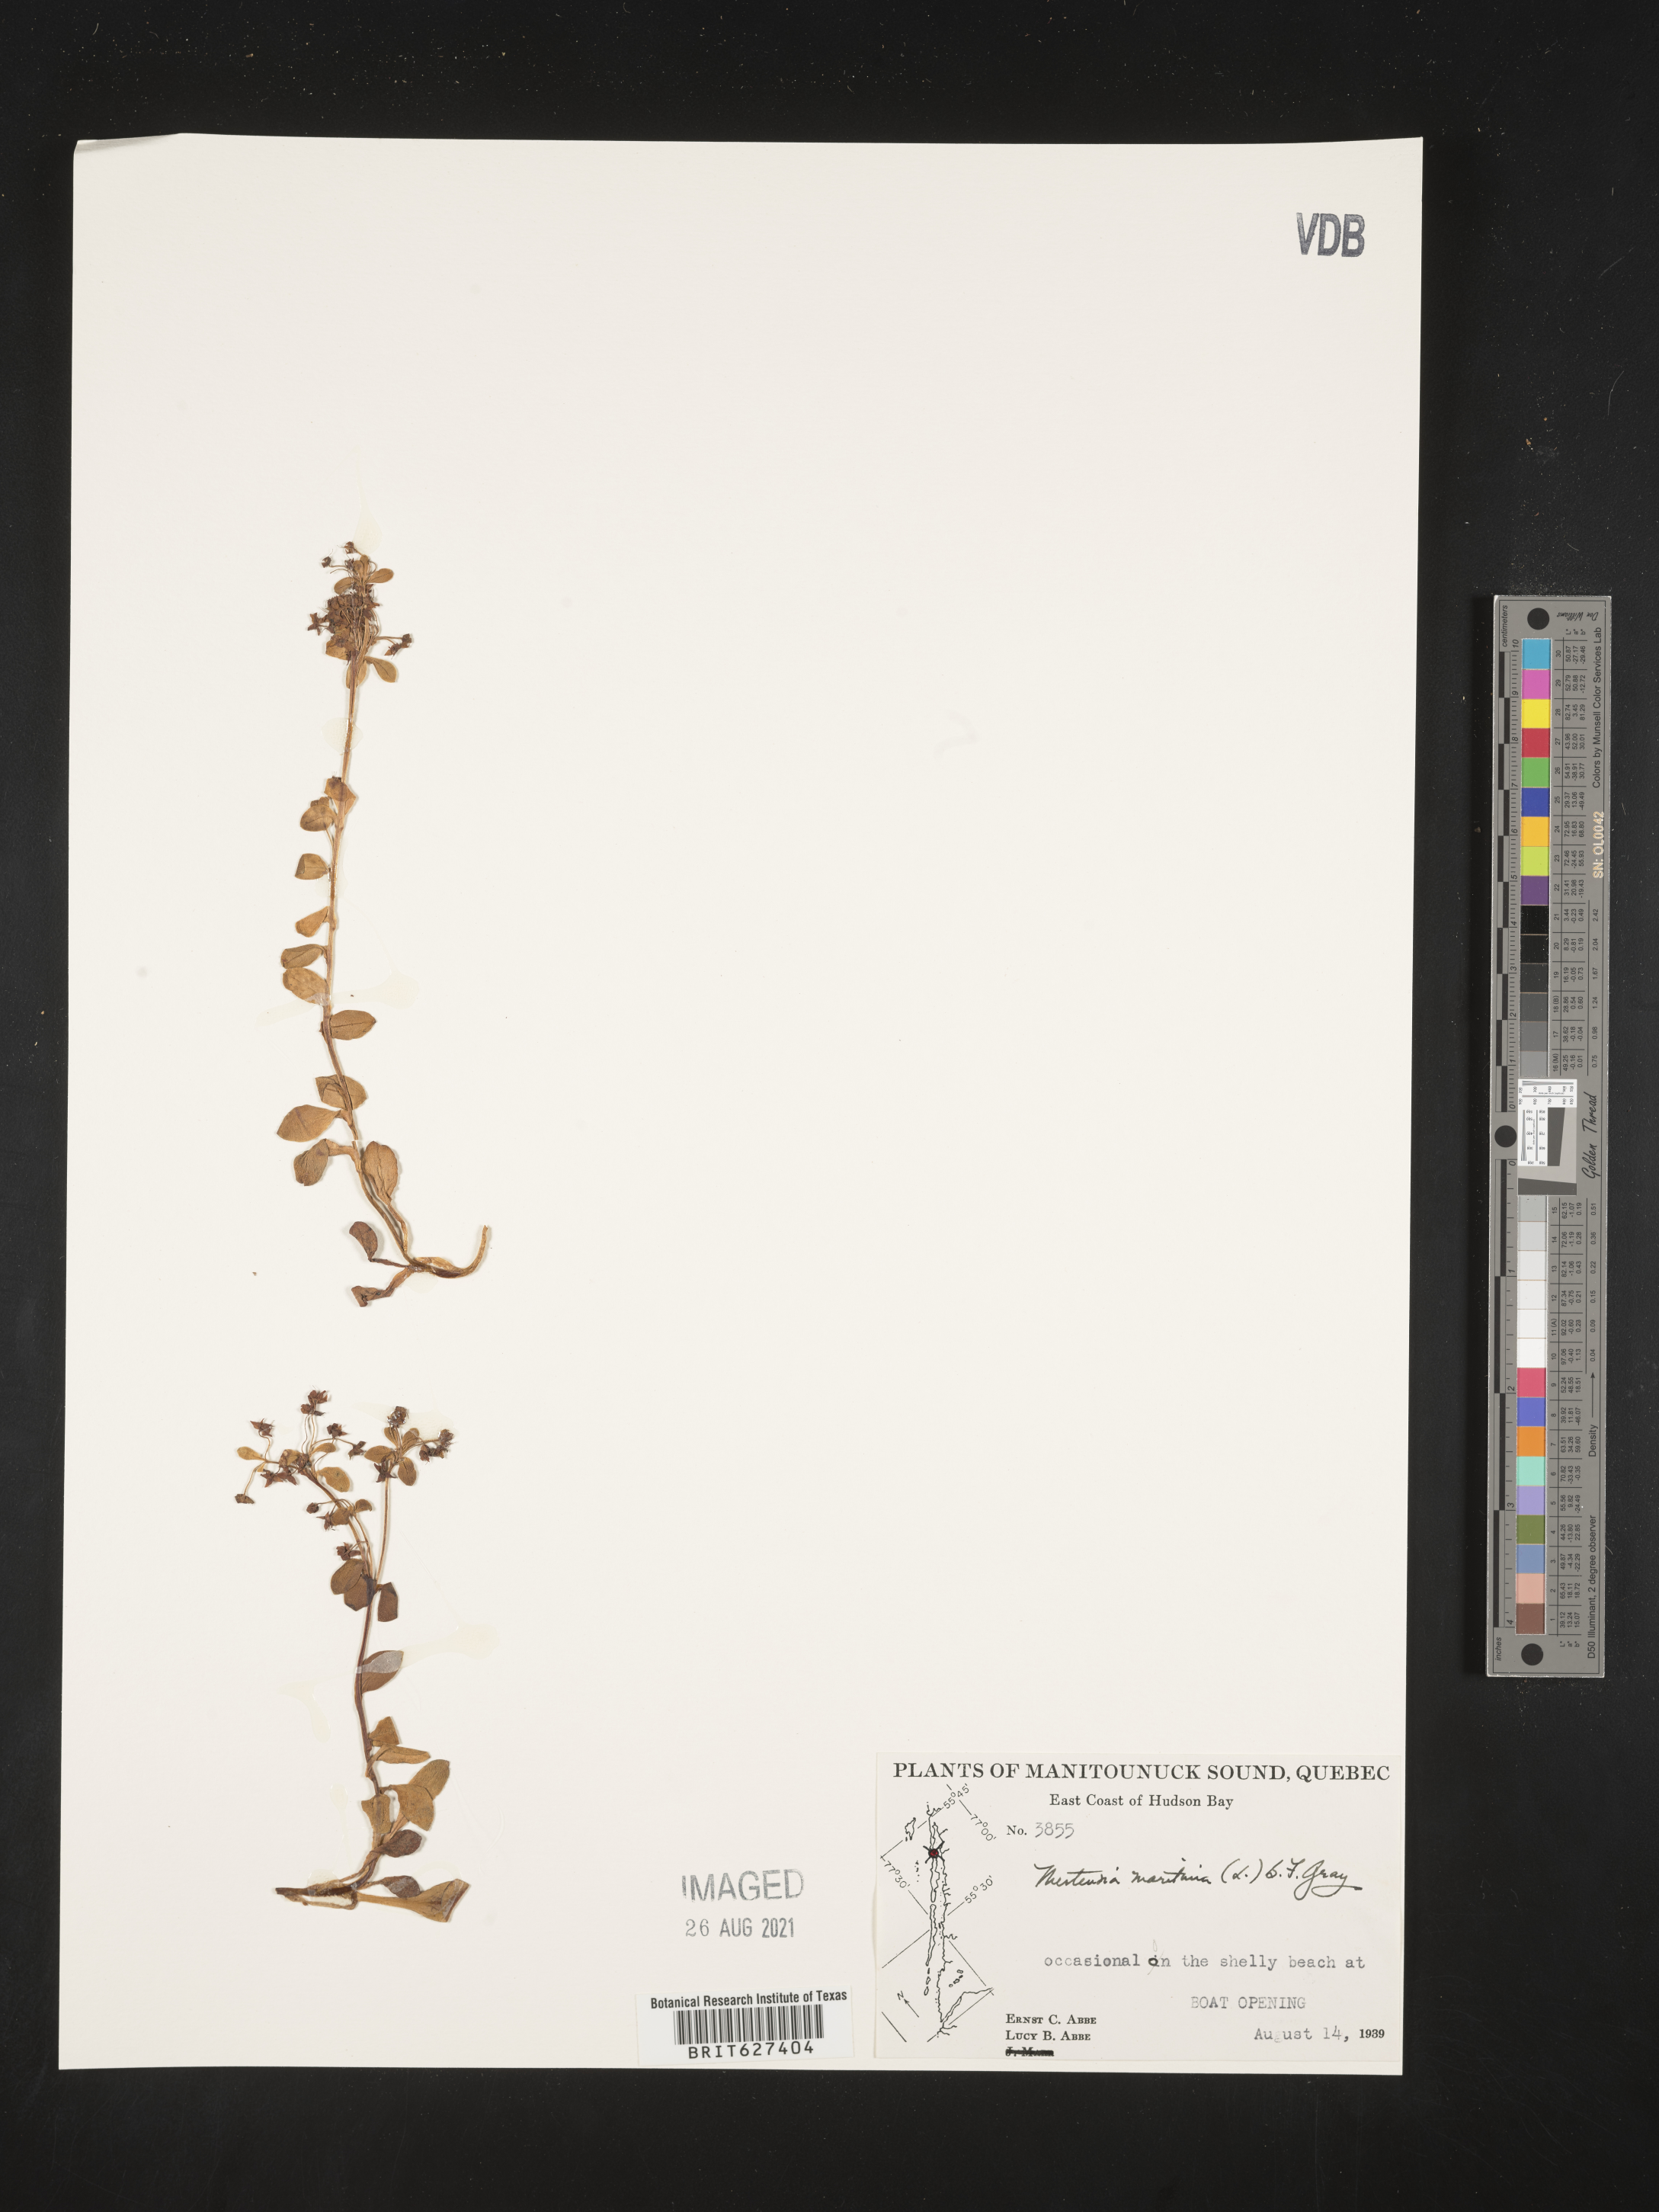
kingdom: Plantae
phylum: Tracheophyta
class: Magnoliopsida
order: Boraginales
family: Boraginaceae
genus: Mertensia
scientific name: Mertensia maritima
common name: Oysterplant
